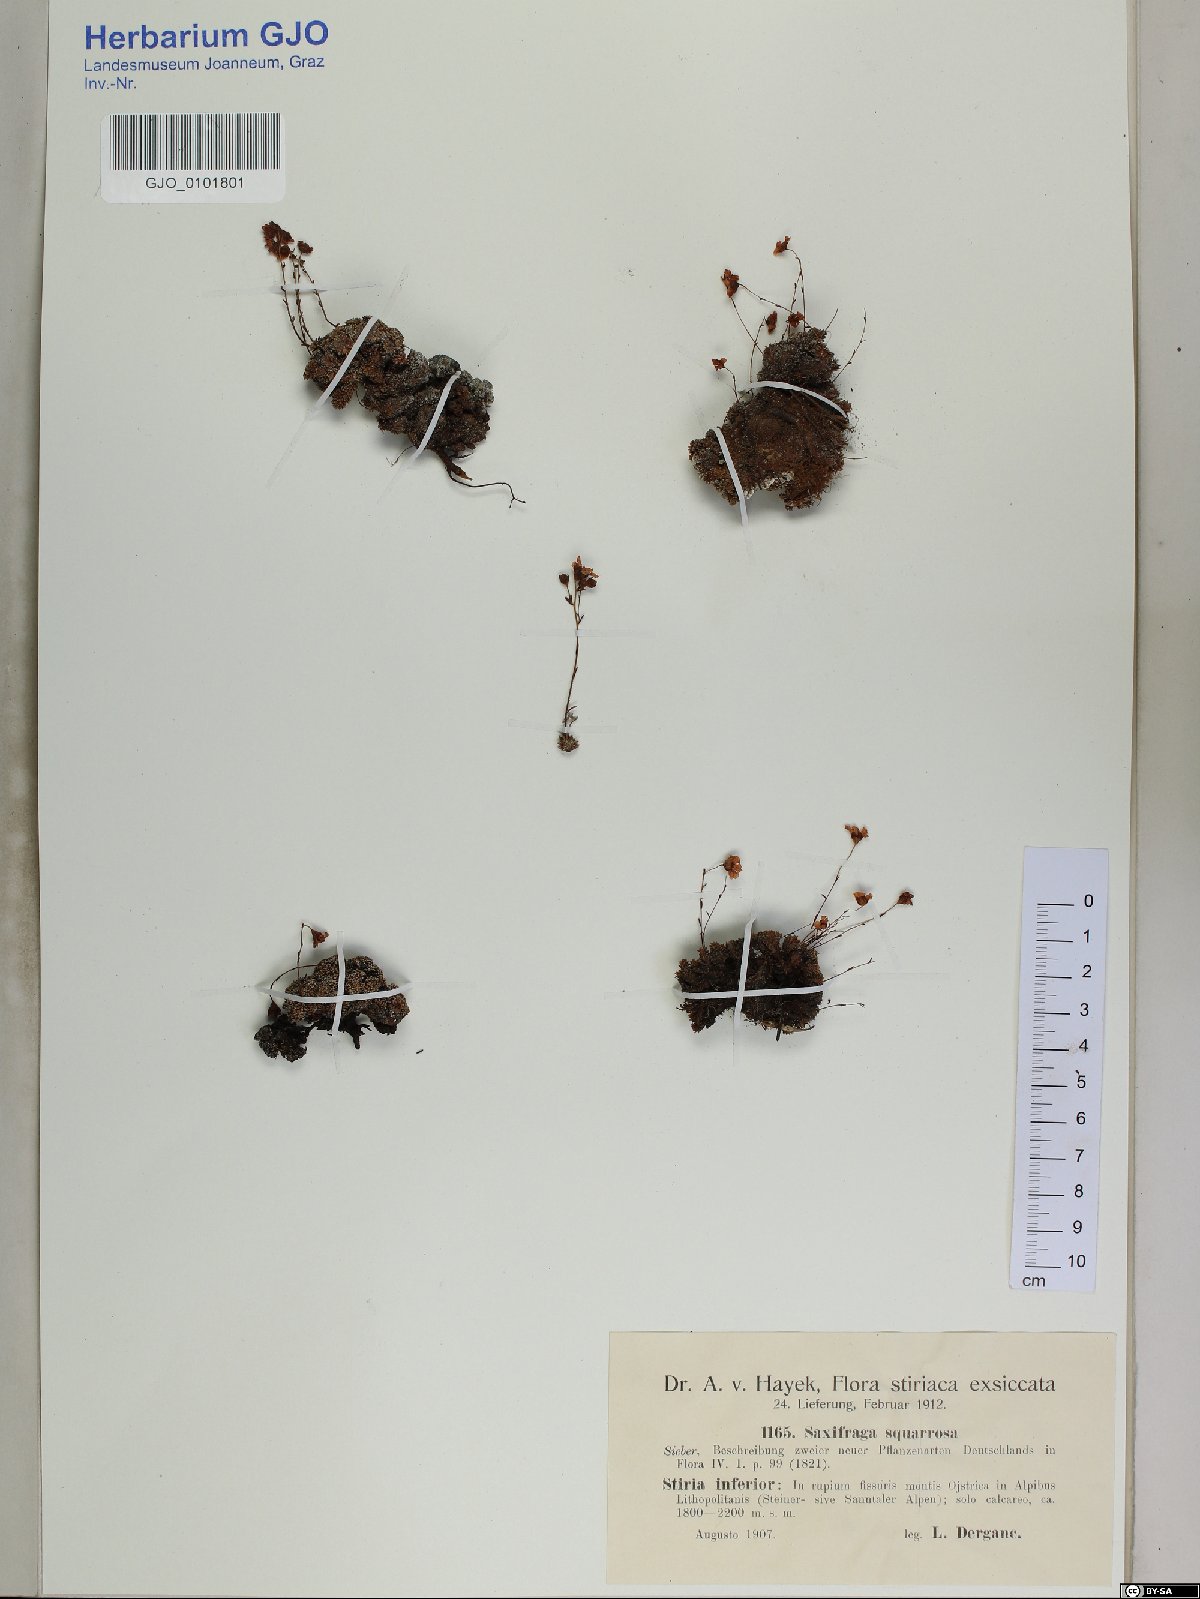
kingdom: Plantae
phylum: Tracheophyta
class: Magnoliopsida
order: Saxifragales
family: Saxifragaceae
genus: Saxifraga
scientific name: Saxifraga squarrosa
